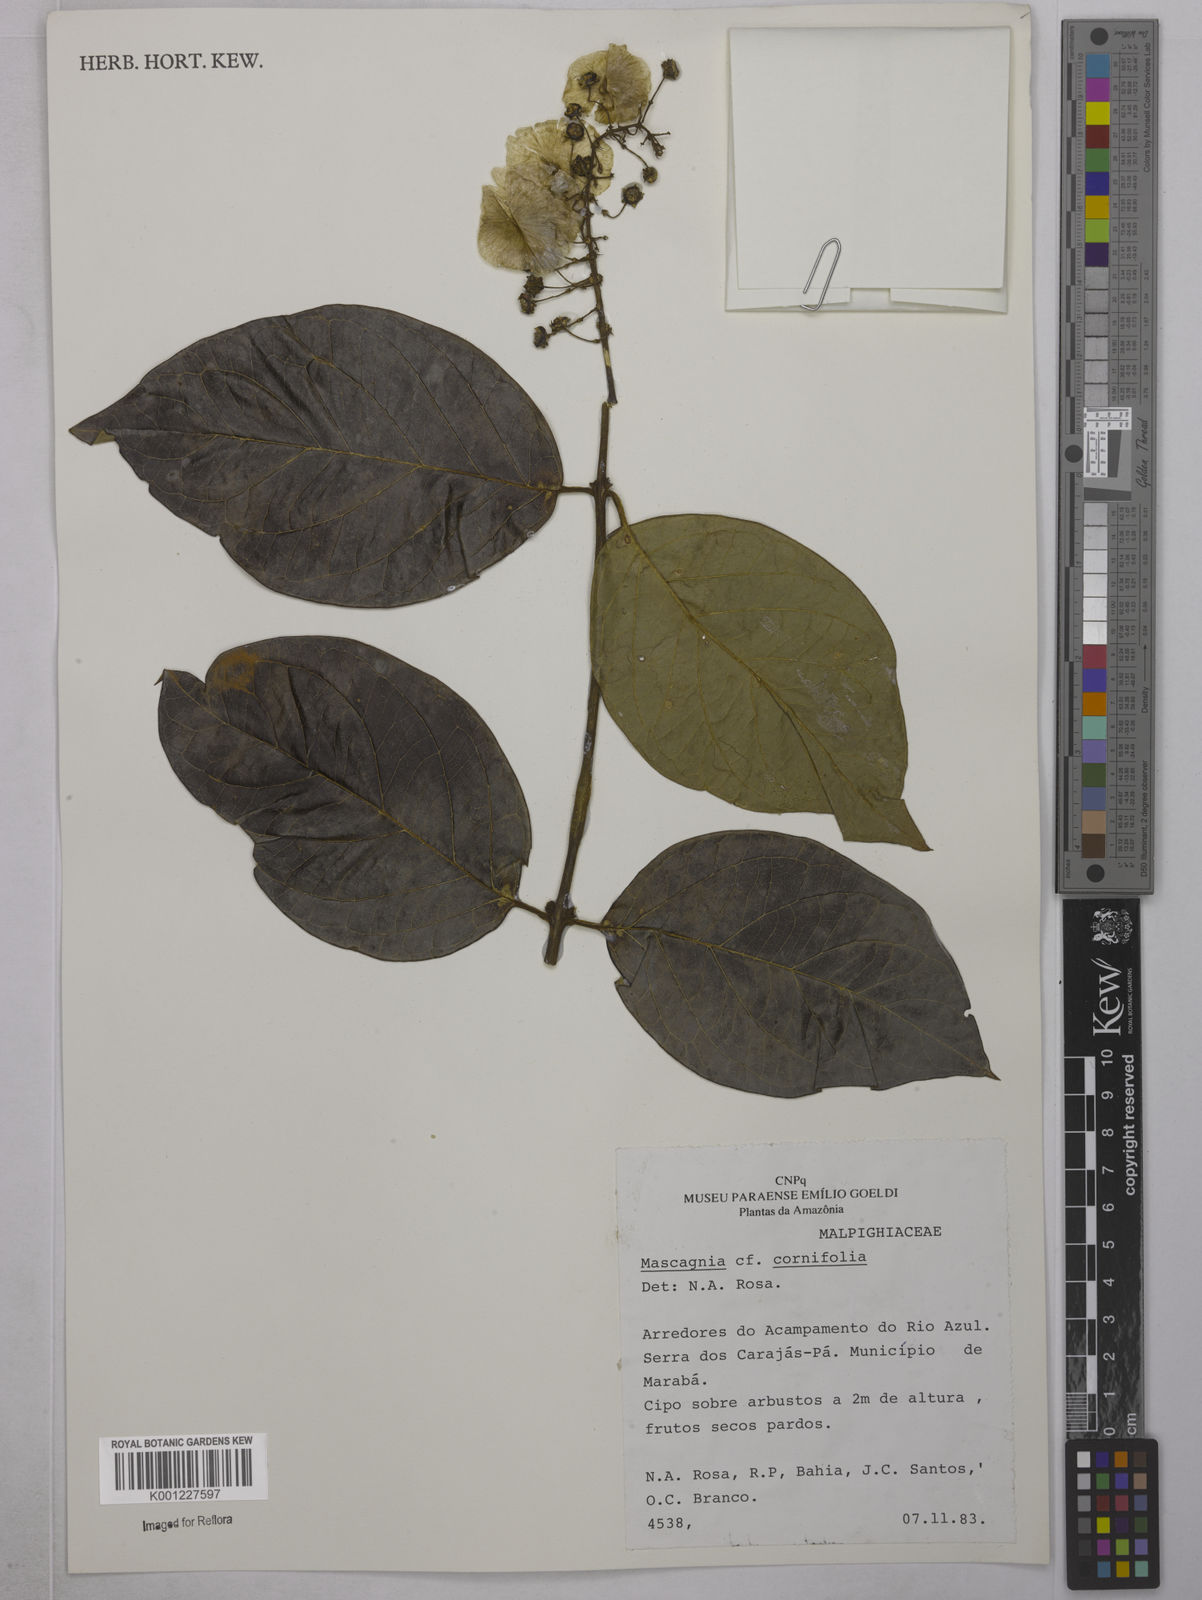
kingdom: Plantae
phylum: Tracheophyta
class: Magnoliopsida
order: Malpighiales
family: Malpighiaceae
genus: Mascagnia
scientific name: Mascagnia cordifolia
